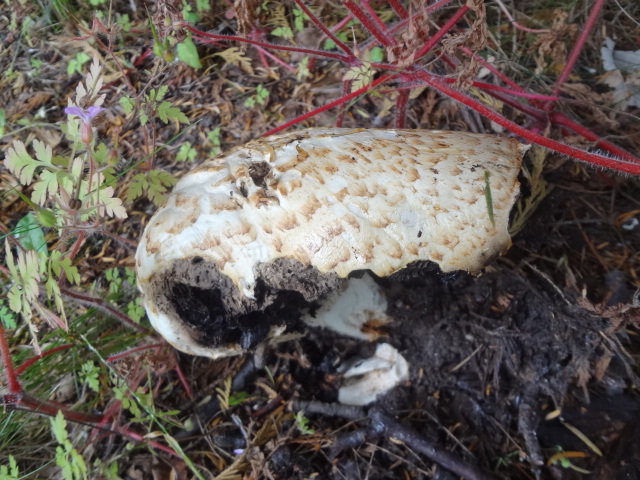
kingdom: Fungi
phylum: Basidiomycota
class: Agaricomycetes
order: Agaricales
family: Agaricaceae
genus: Agaricus
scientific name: Agaricus augustus
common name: prægtig champignon
